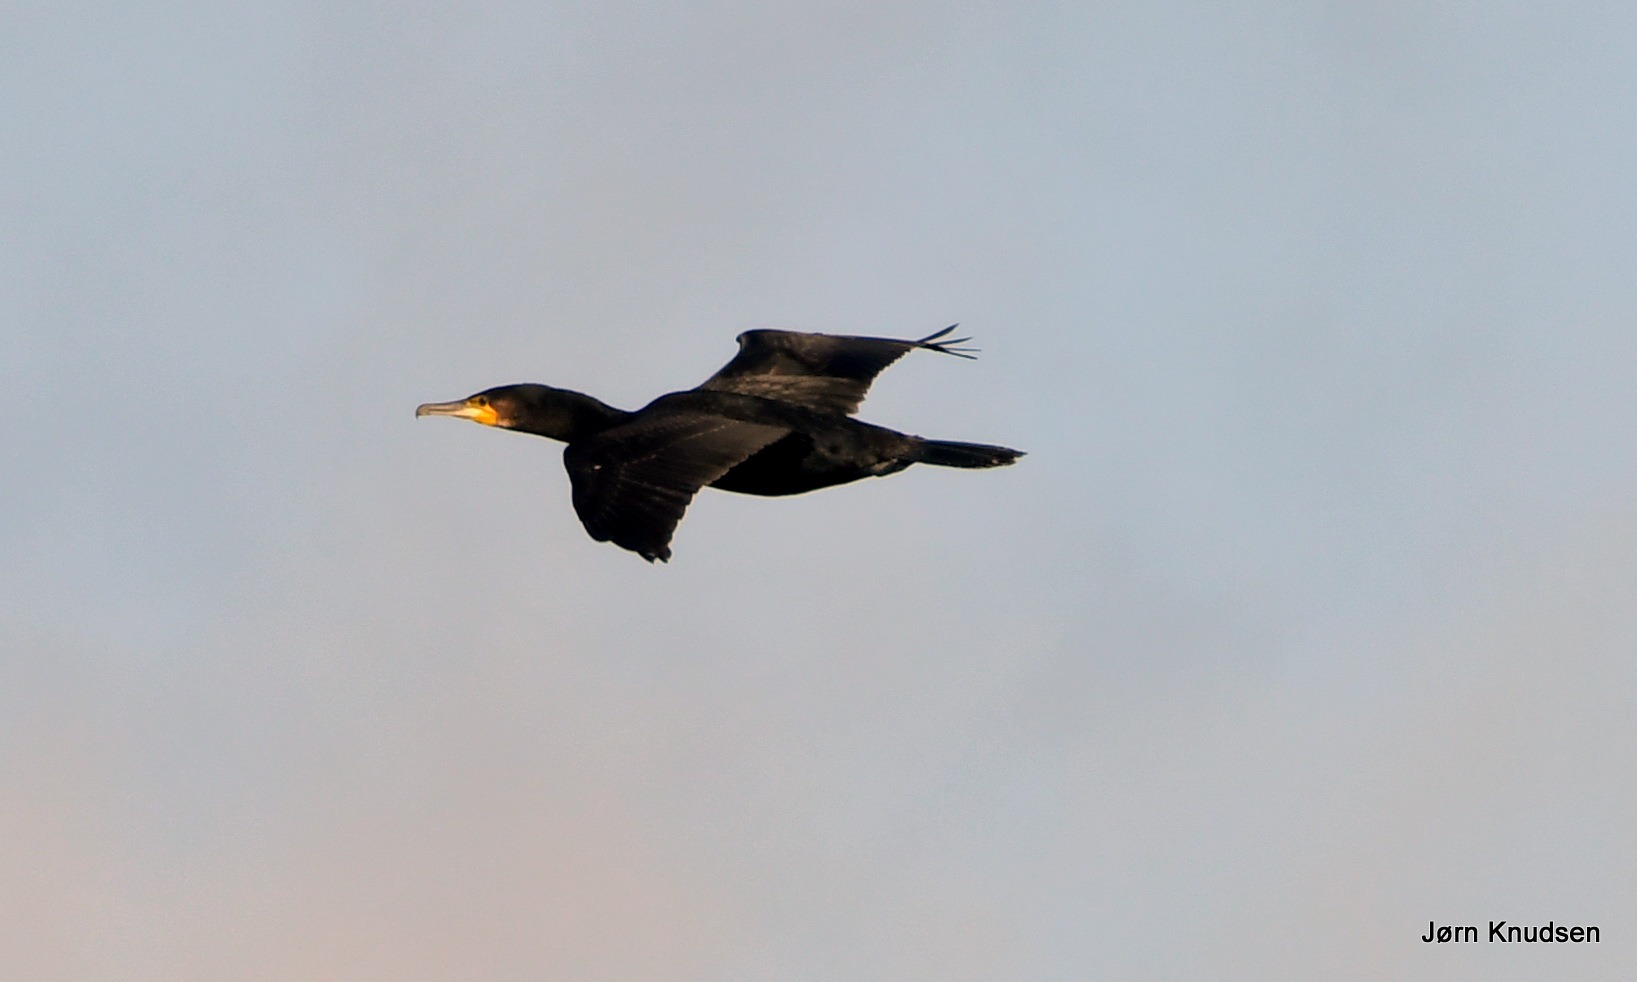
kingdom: Animalia
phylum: Chordata
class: Aves
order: Suliformes
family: Phalacrocoracidae
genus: Phalacrocorax
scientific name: Phalacrocorax carbo
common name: Skarv
